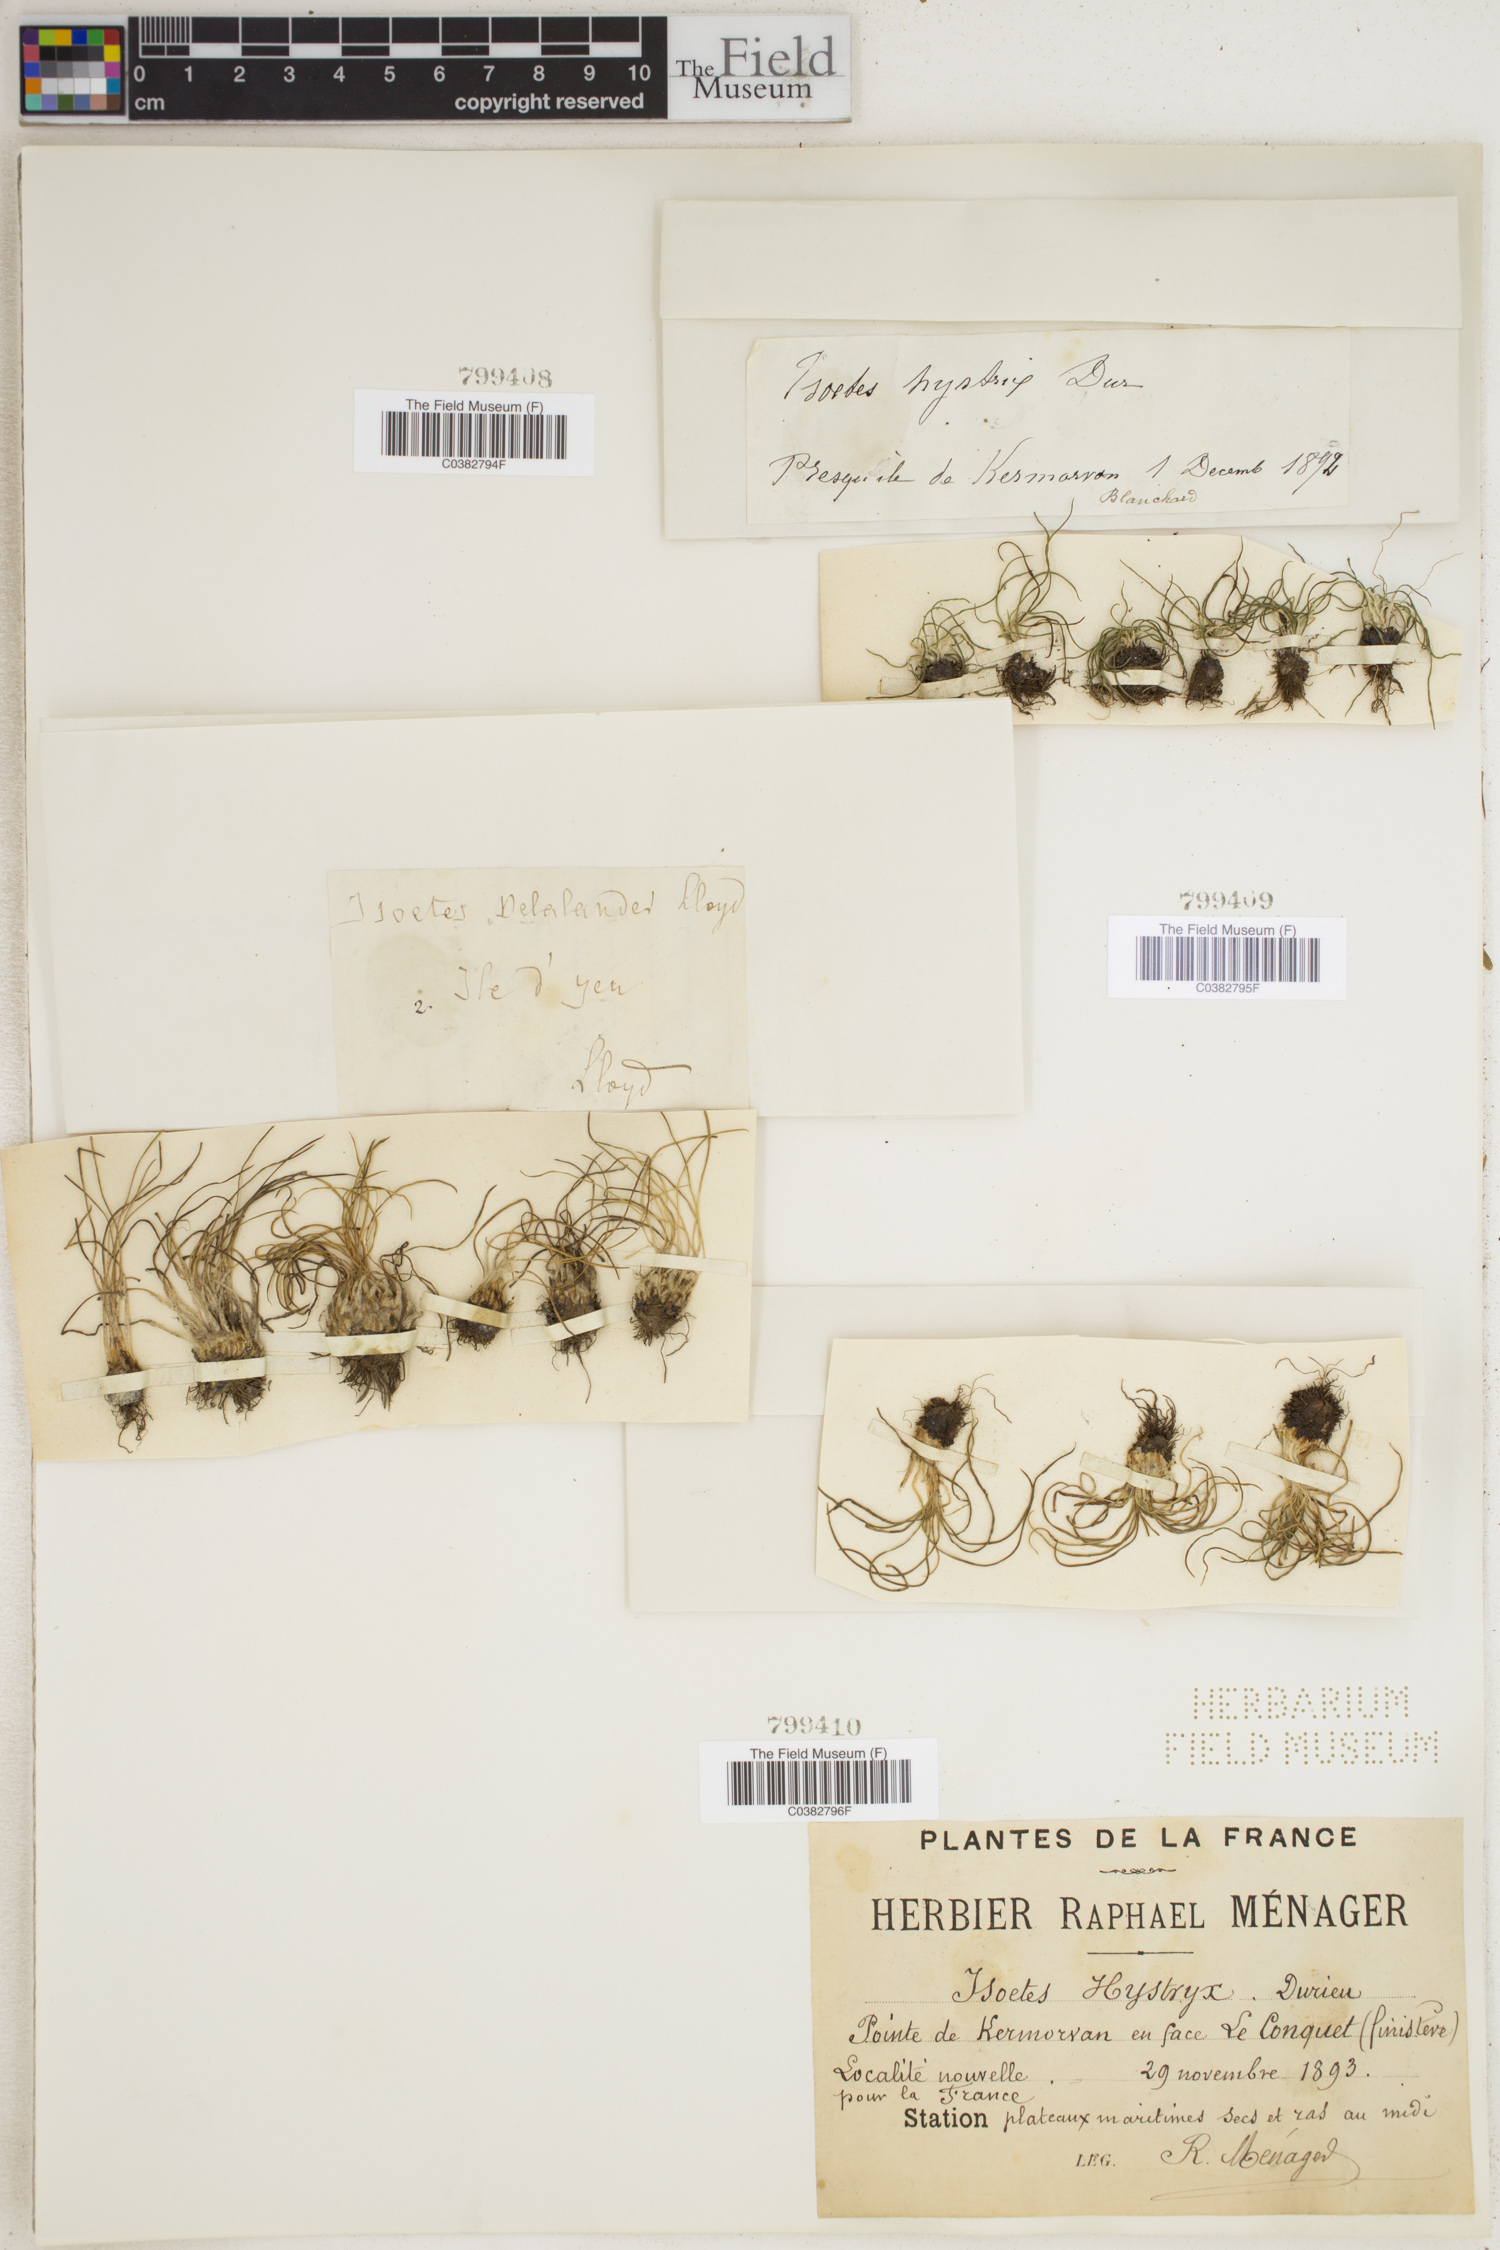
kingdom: Plantae
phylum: Tracheophyta
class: Lycopodiopsida
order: Isoetales
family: Isoetaceae
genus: Isoetes
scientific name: Isoetes bolanderi
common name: Bolander's quillwort
